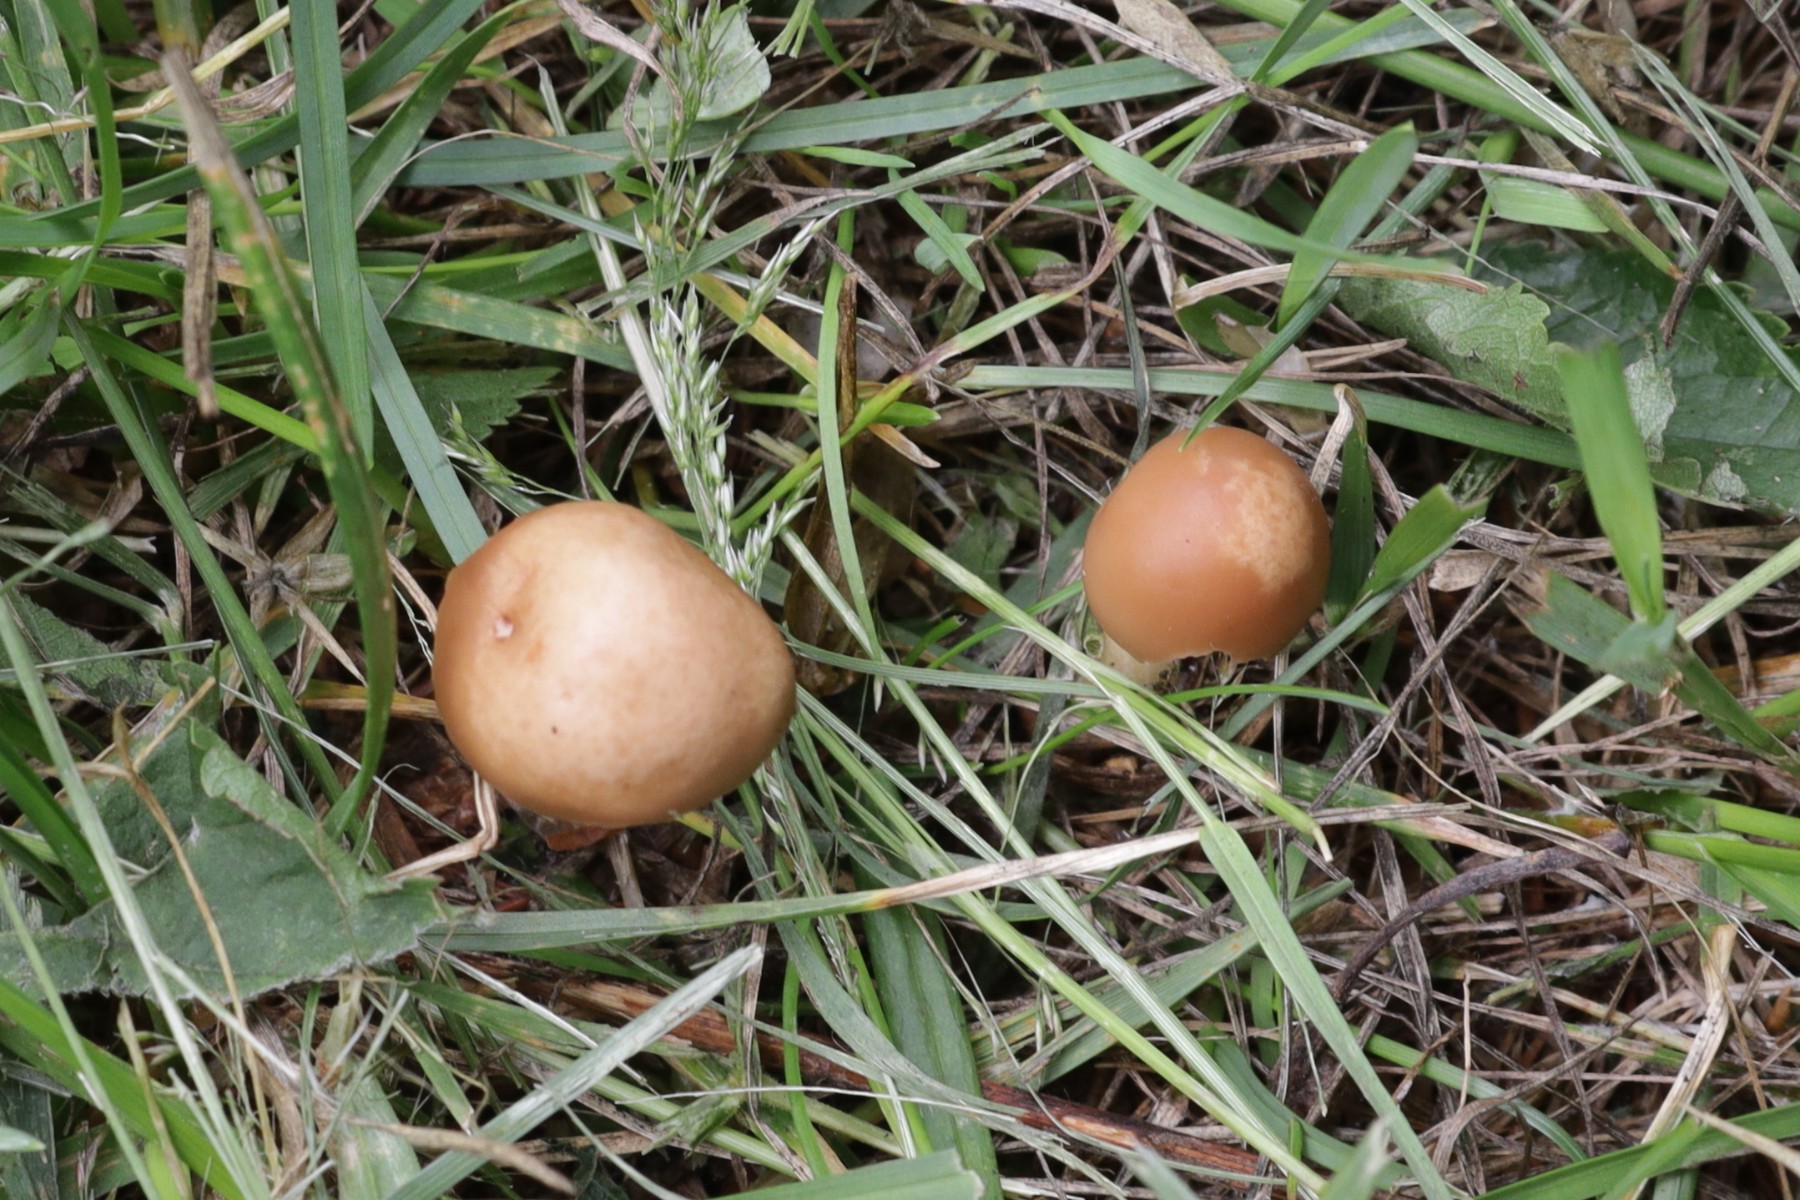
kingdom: Fungi
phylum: Basidiomycota
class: Agaricomycetes
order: Agaricales
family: Marasmiaceae
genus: Marasmius
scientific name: Marasmius oreades
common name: elledans-bruskhat
